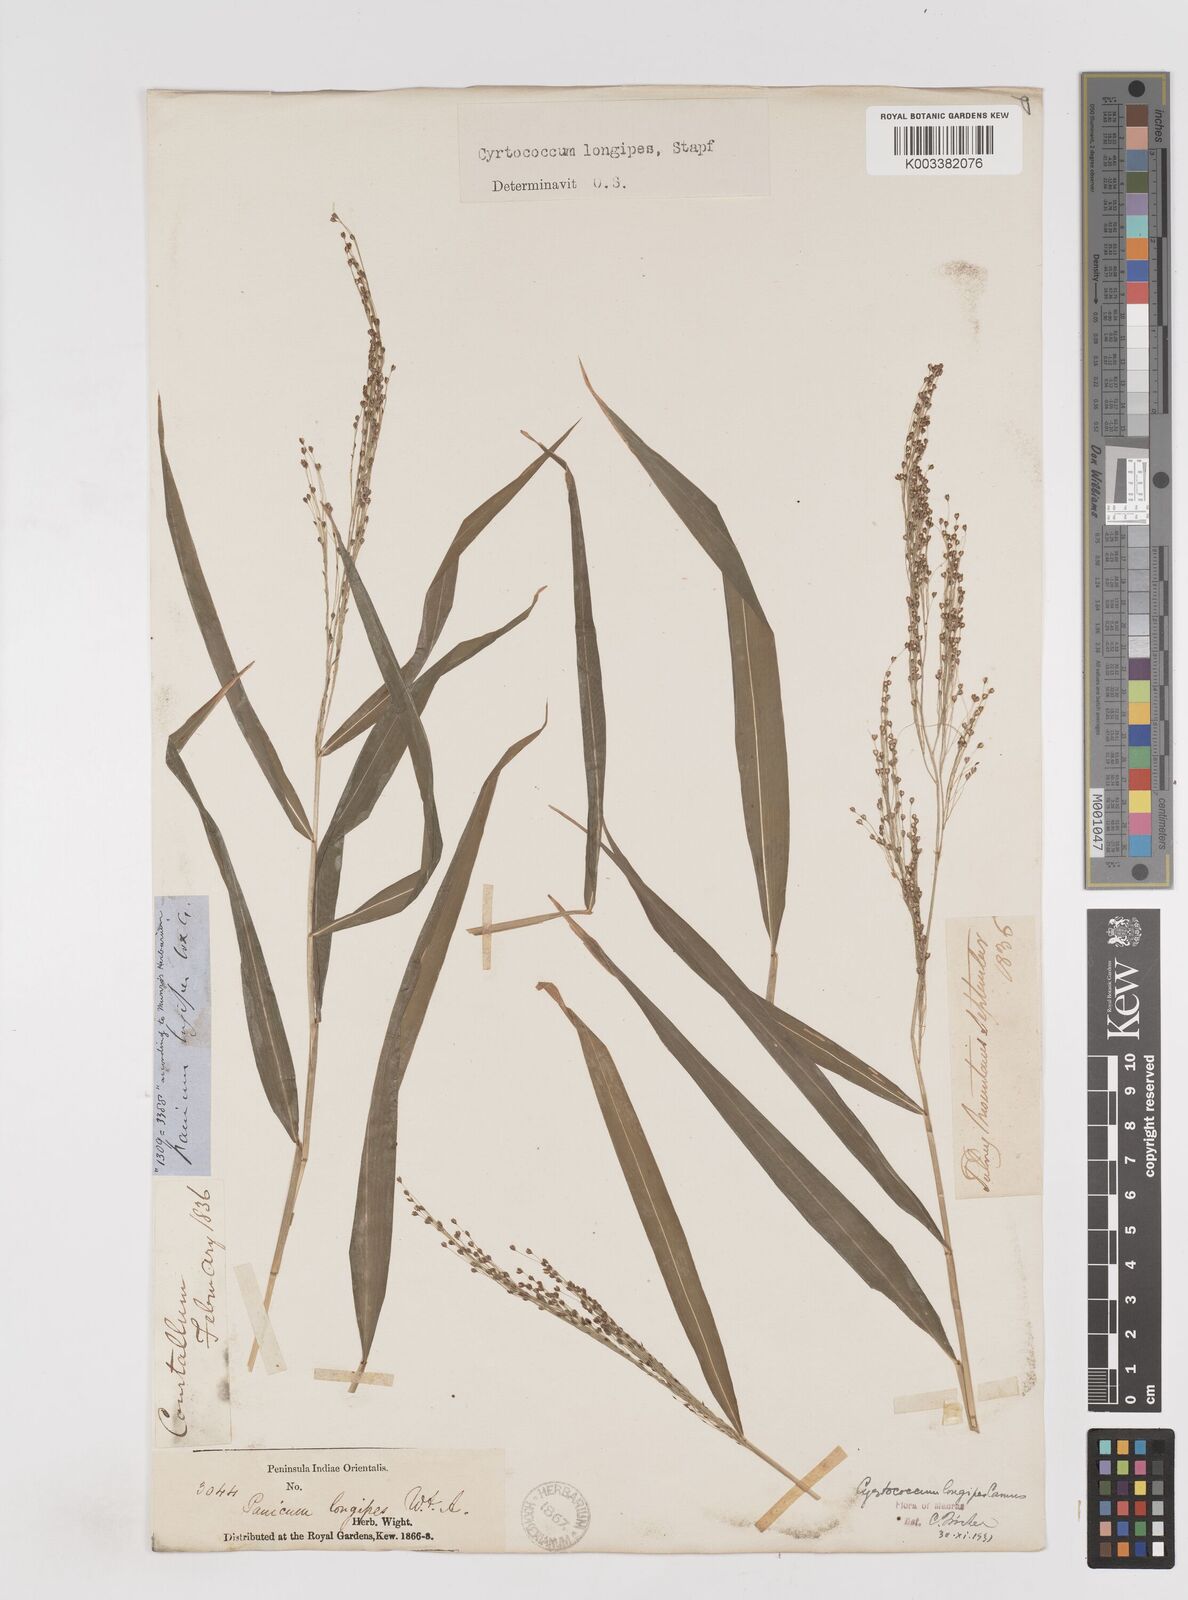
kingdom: Plantae
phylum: Tracheophyta
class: Liliopsida
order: Poales
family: Poaceae
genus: Cyrtococcum
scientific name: Cyrtococcum longipes
